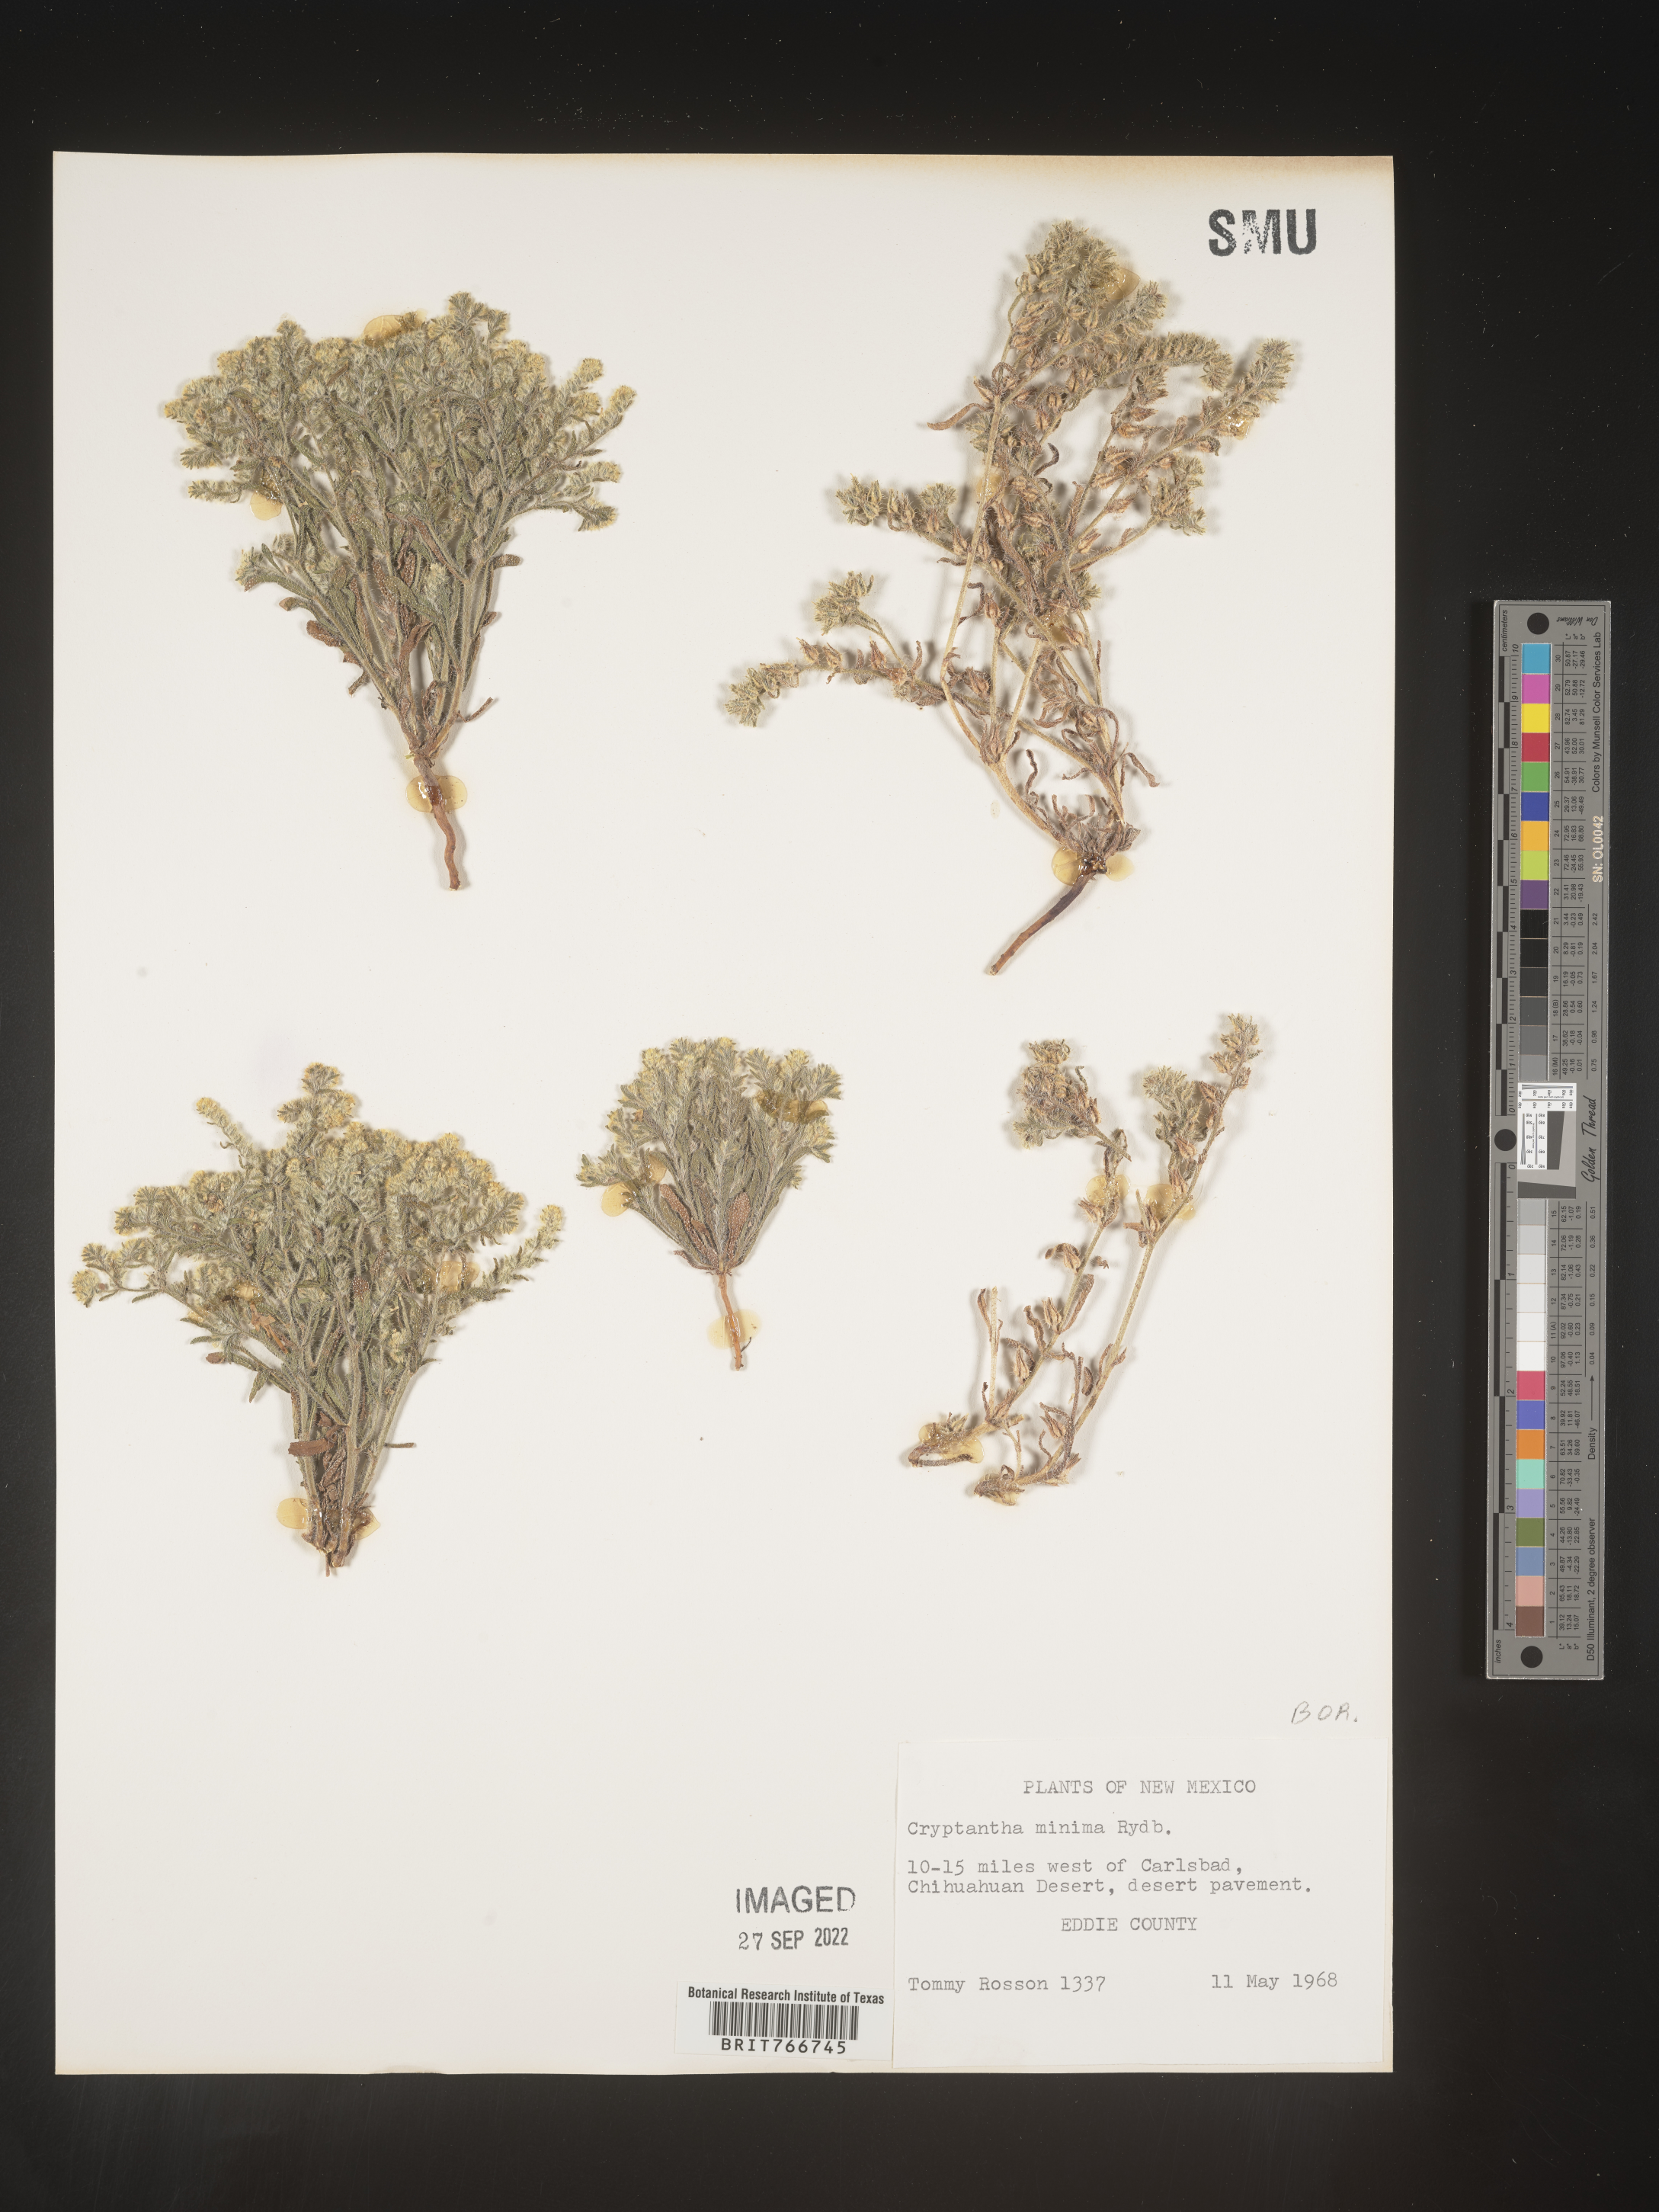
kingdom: Plantae
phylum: Tracheophyta
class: Magnoliopsida
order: Boraginales
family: Boraginaceae
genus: Cryptantha
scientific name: Cryptantha minima
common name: Little cat's-eye
